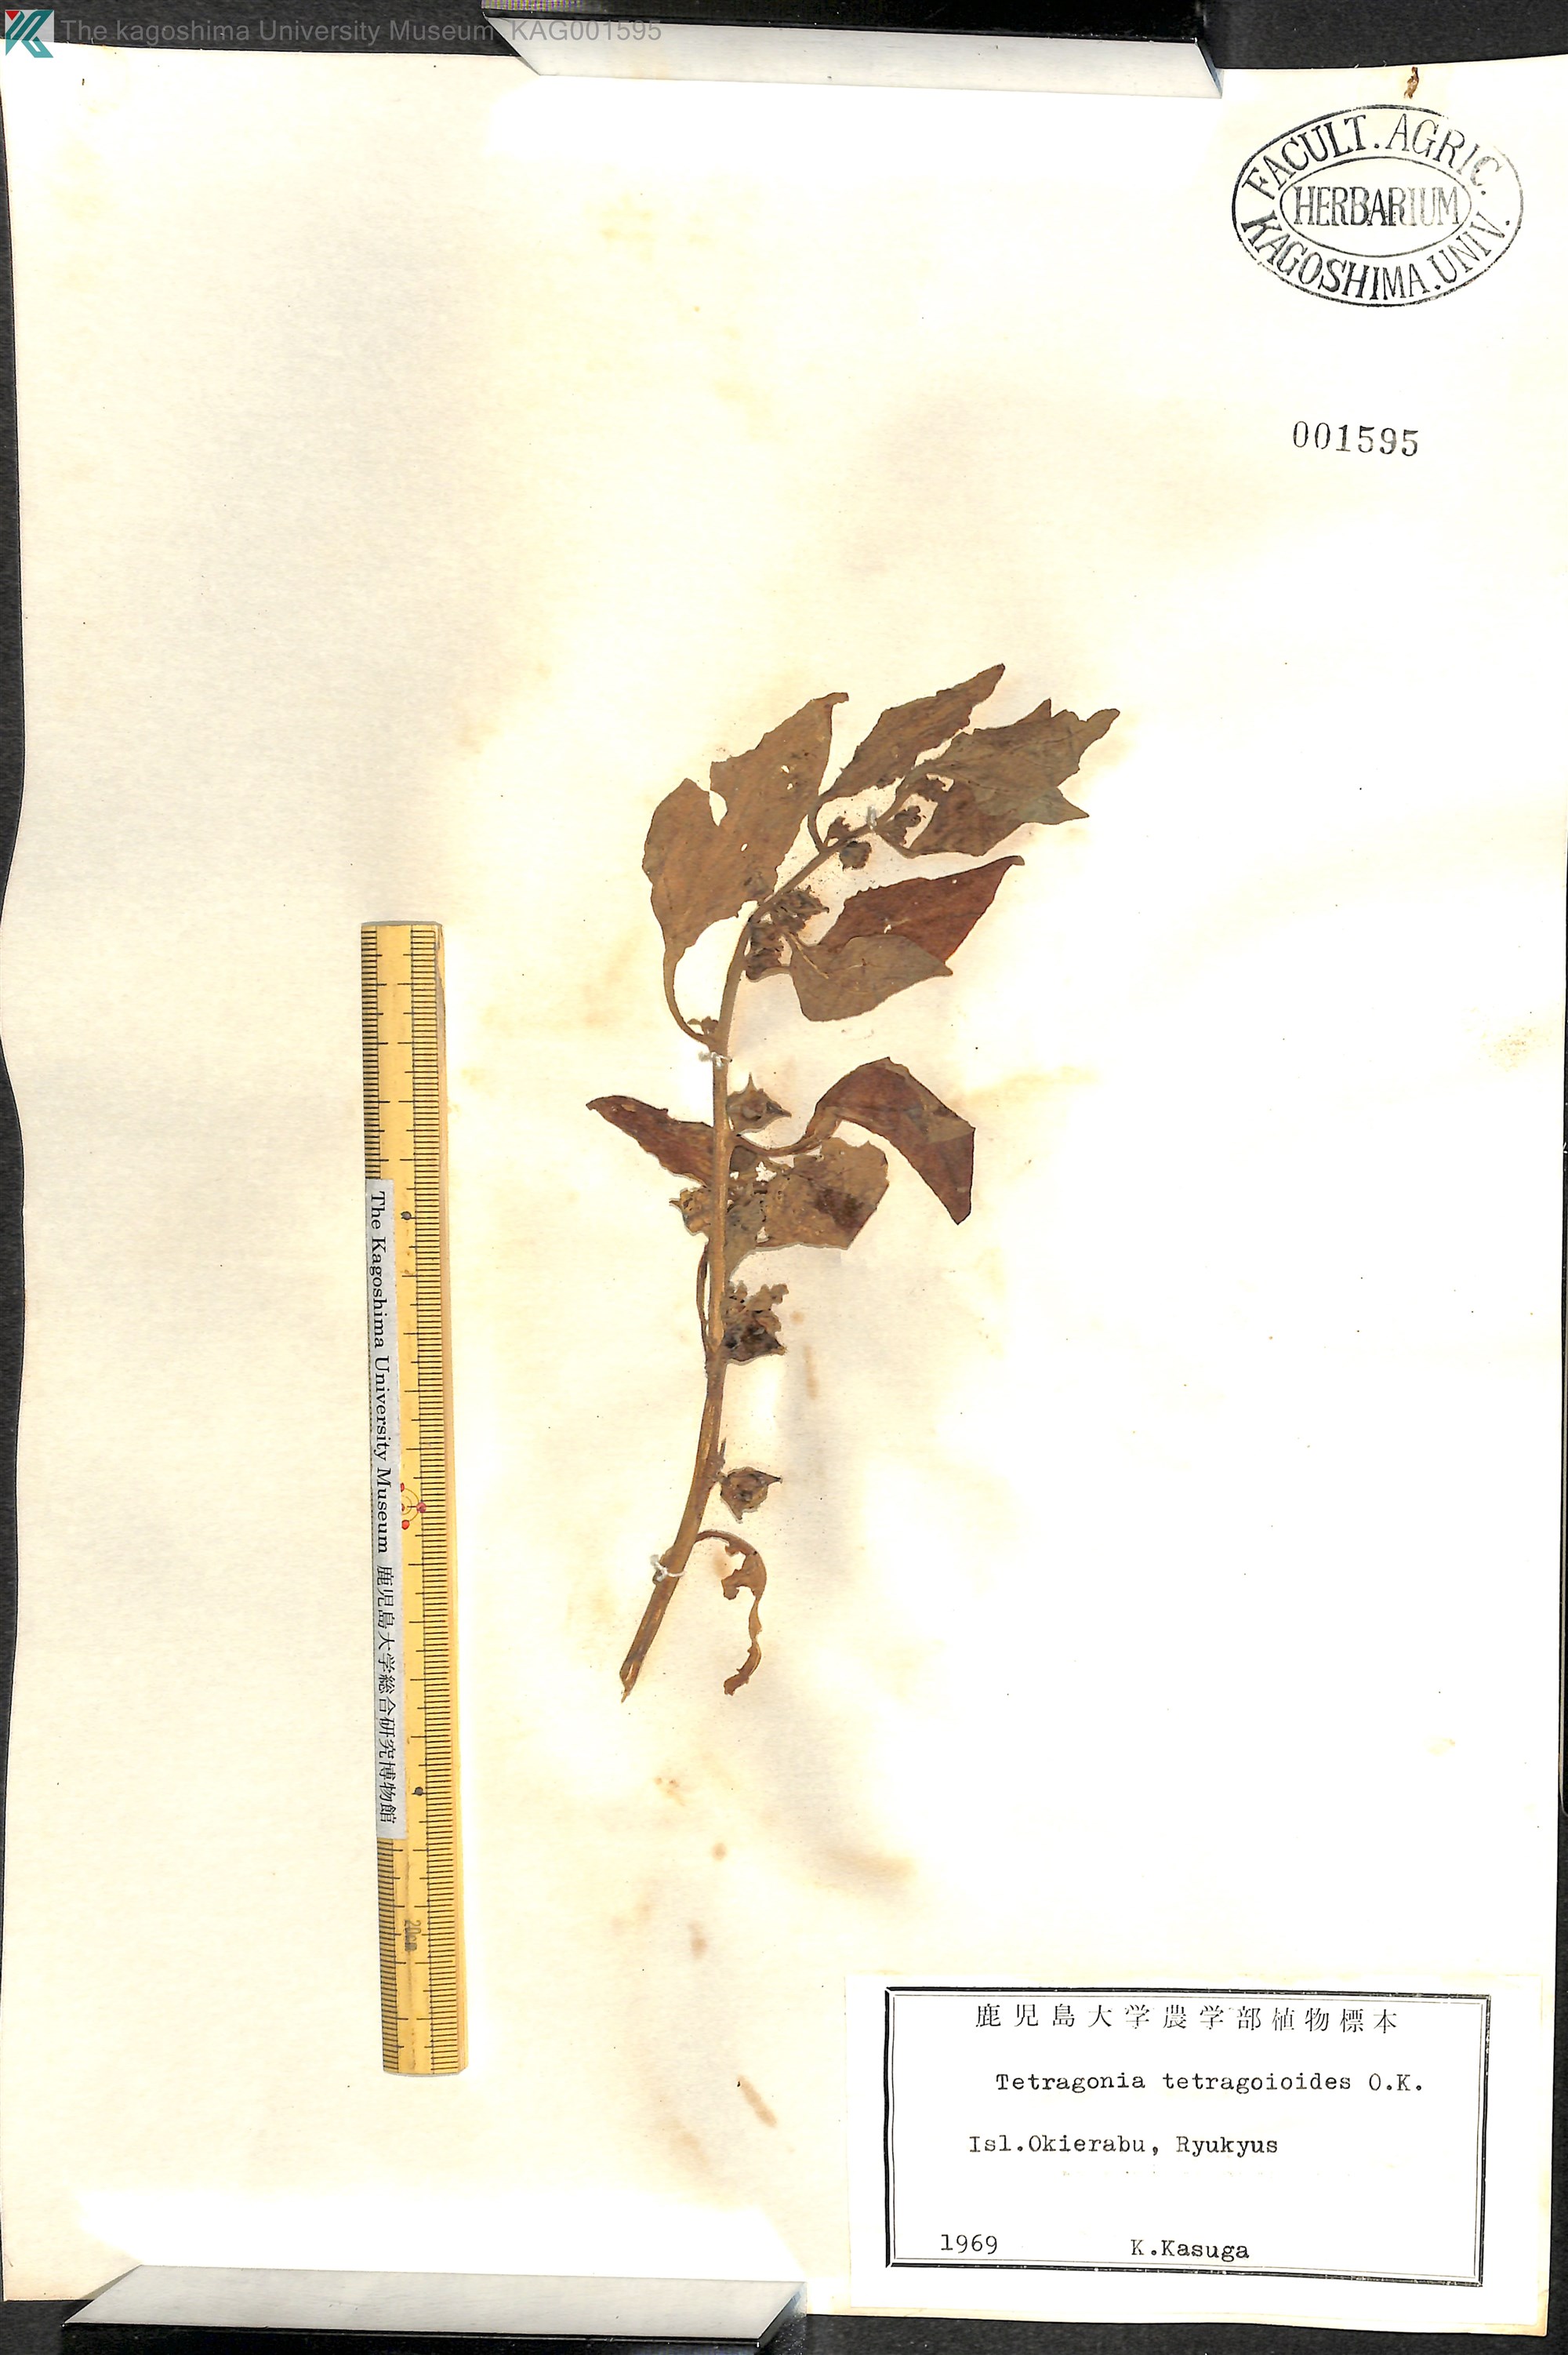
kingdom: Plantae
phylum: Tracheophyta
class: Magnoliopsida
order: Caryophyllales
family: Aizoaceae
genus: Tetragonia
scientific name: Tetragonia tetragonoides
